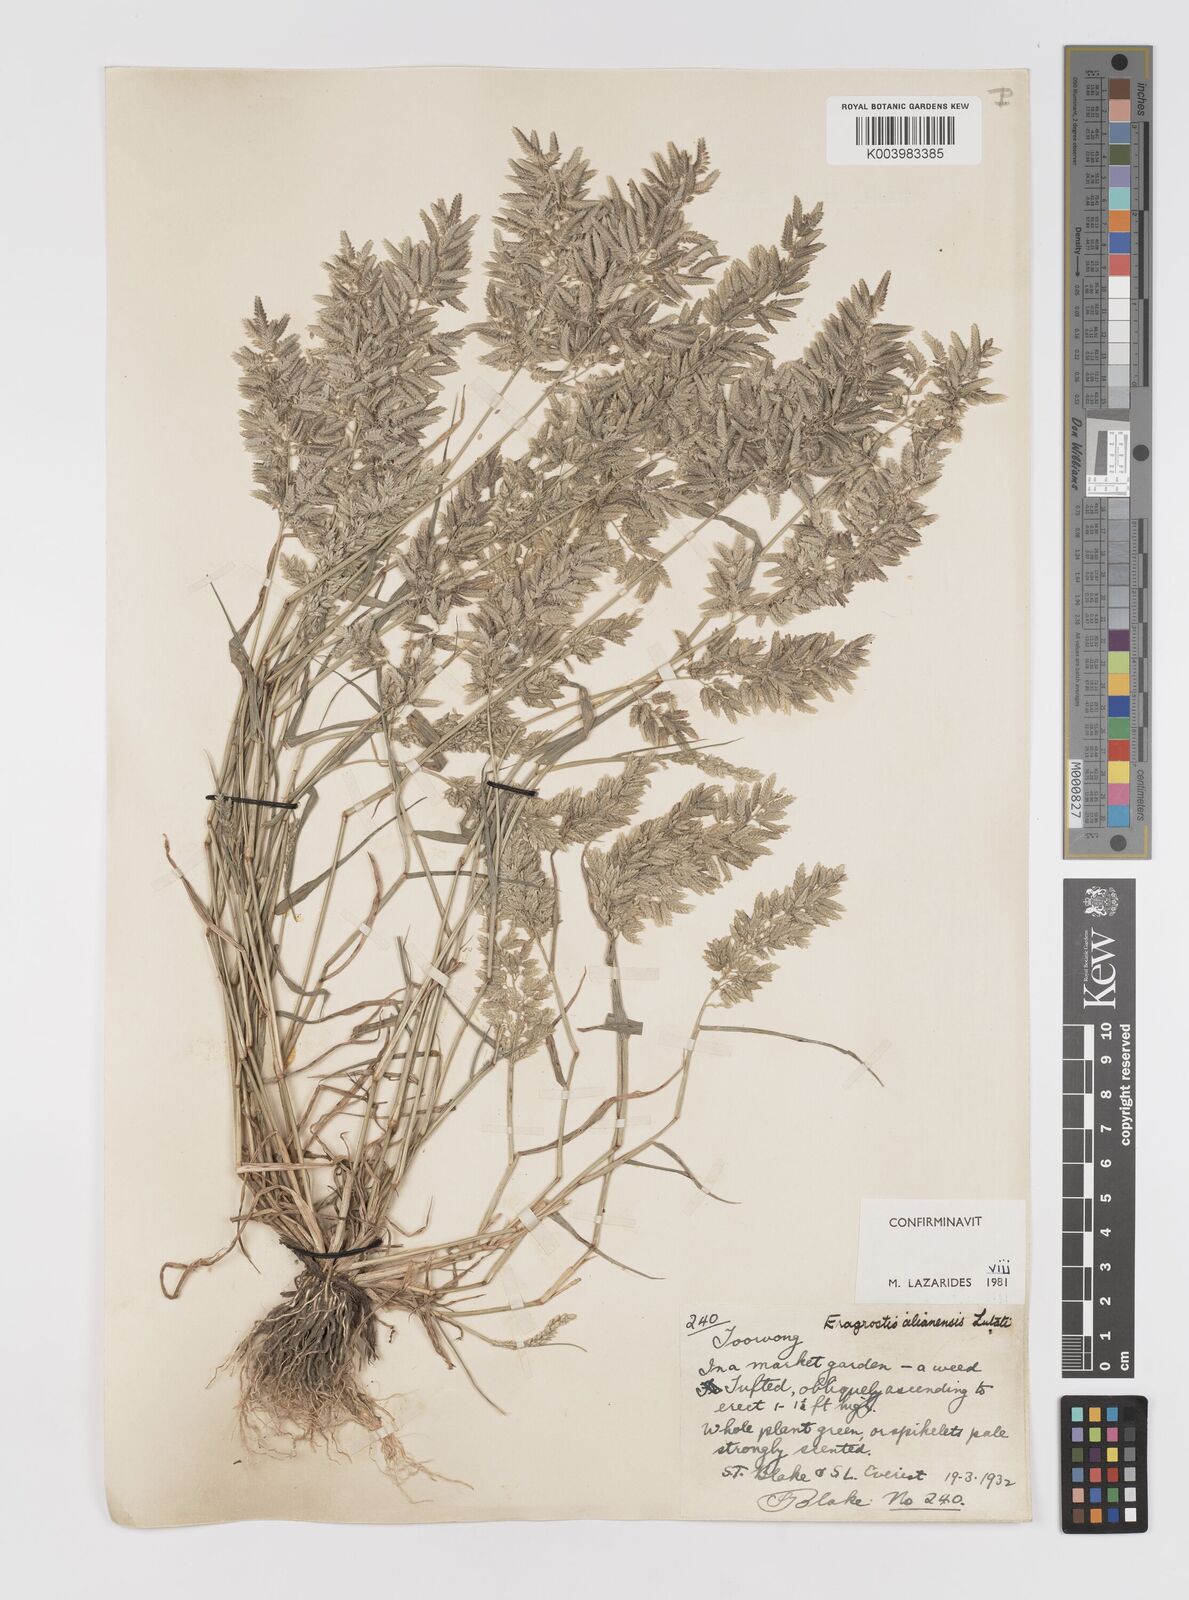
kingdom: Plantae
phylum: Tracheophyta
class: Liliopsida
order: Poales
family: Poaceae
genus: Eragrostis
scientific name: Eragrostis cilianensis
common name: Stinkgrass
